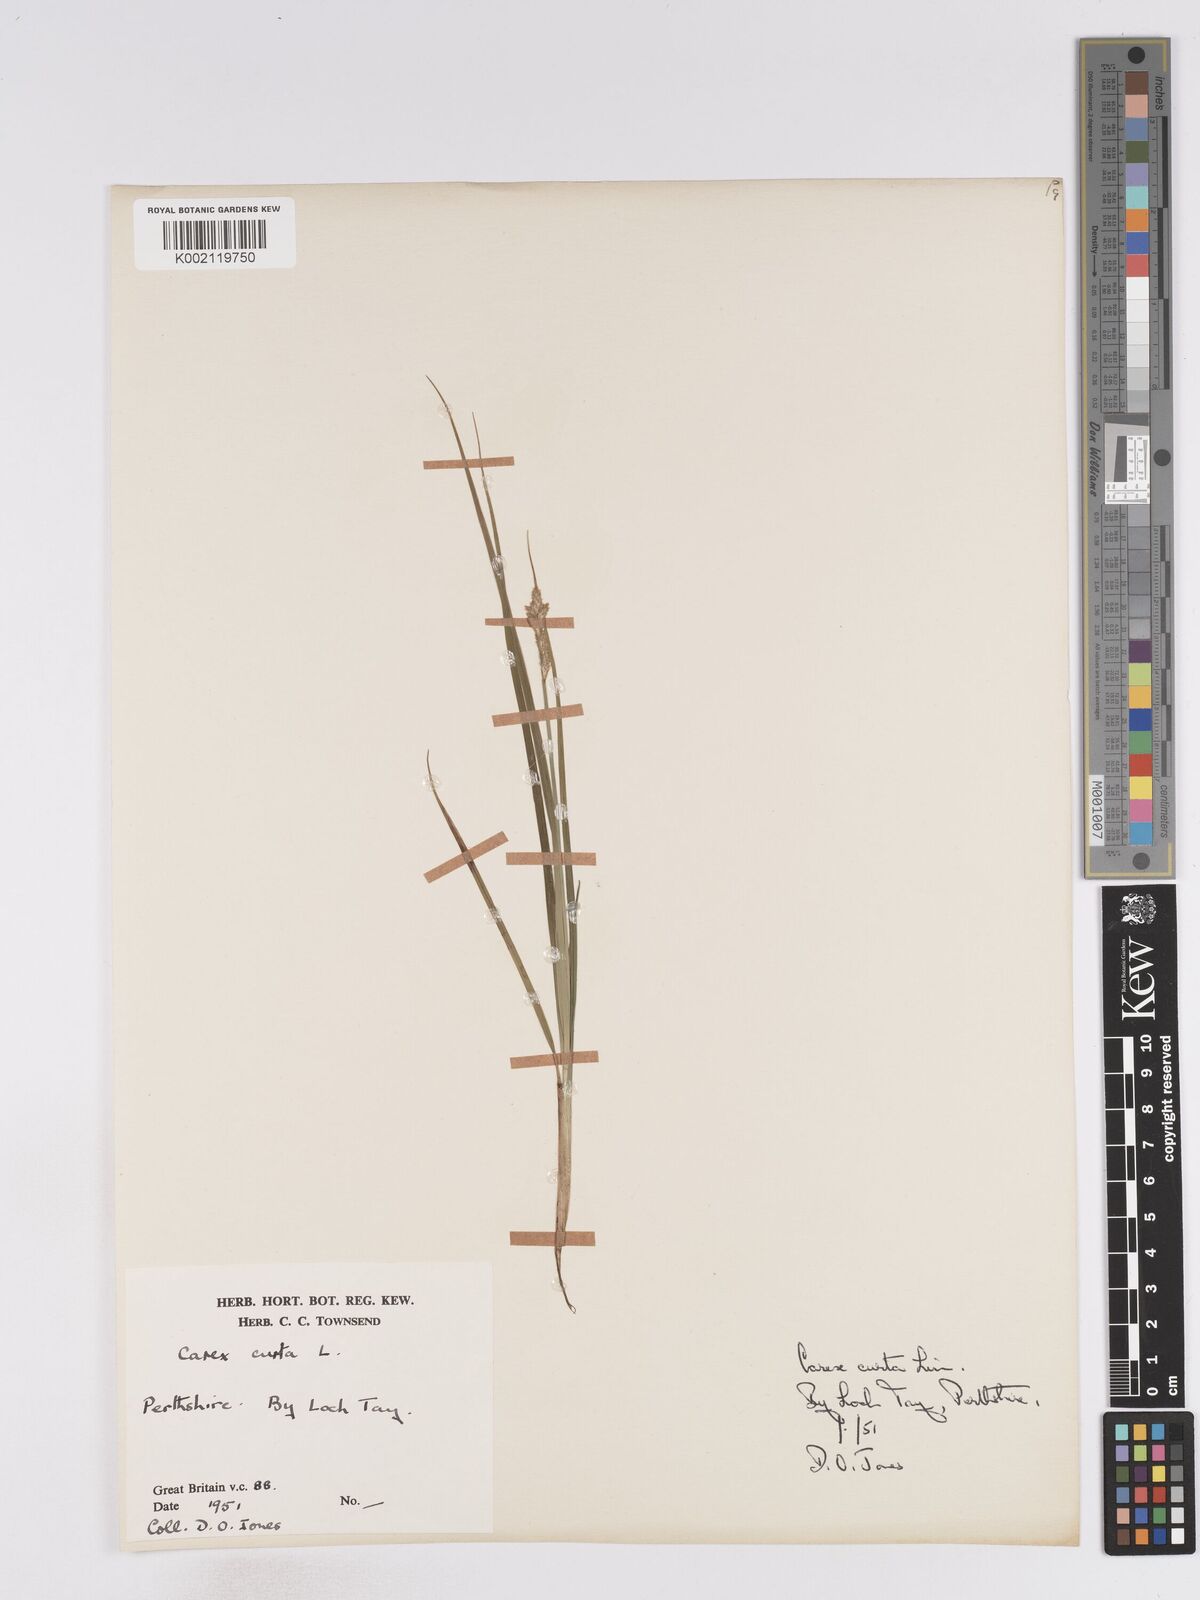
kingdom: Plantae
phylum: Tracheophyta
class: Liliopsida
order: Poales
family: Cyperaceae
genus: Carex
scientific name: Carex curta
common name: White sedge
